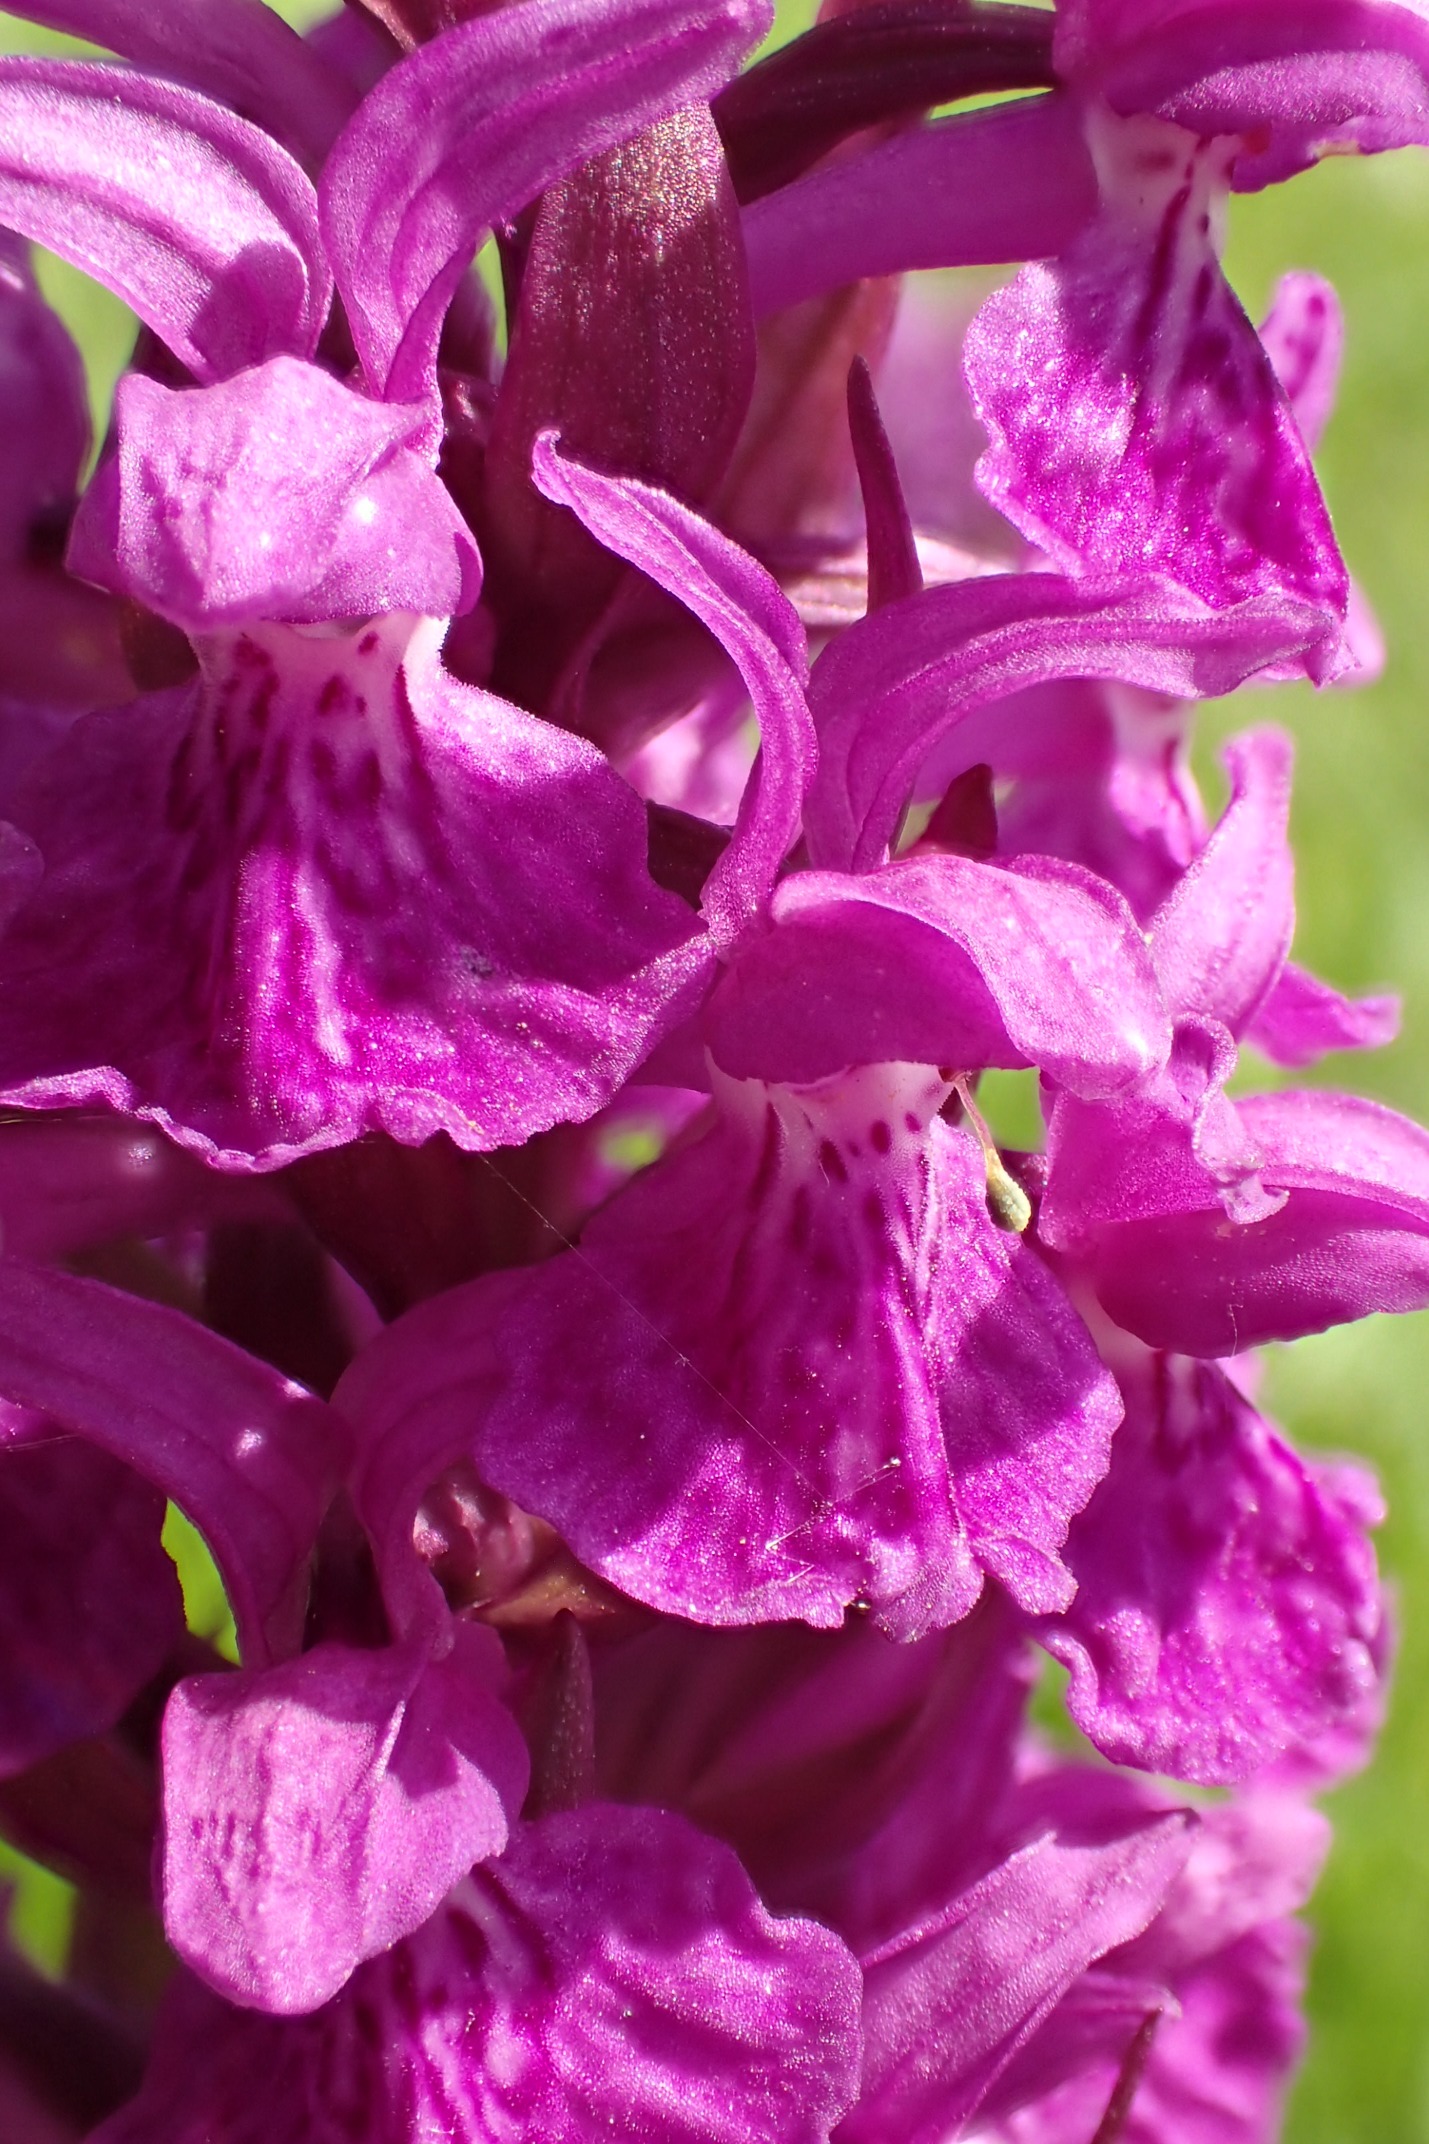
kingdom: Plantae
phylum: Tracheophyta
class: Liliopsida
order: Asparagales
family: Orchidaceae
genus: Dactylorhiza
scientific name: Dactylorhiza majalis
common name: Maj-gøgeurt
